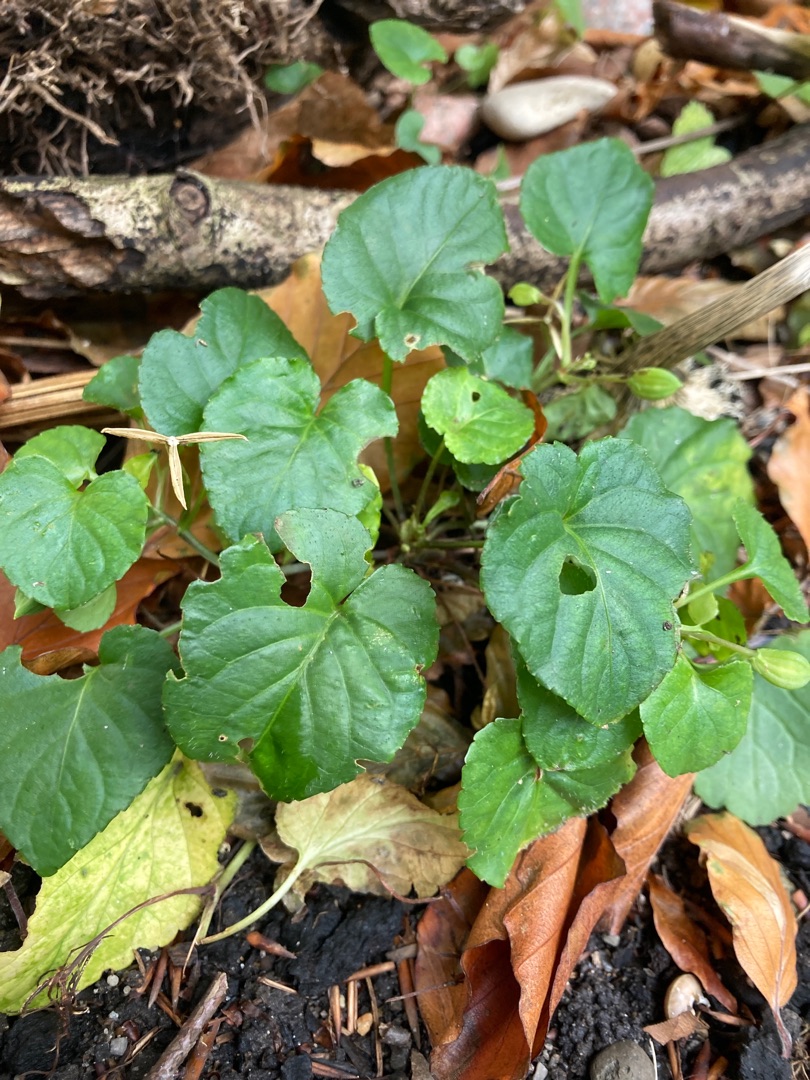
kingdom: Plantae
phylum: Tracheophyta
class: Magnoliopsida
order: Malpighiales
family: Violaceae
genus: Viola
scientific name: Viola reichenbachiana
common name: Skov-viol
